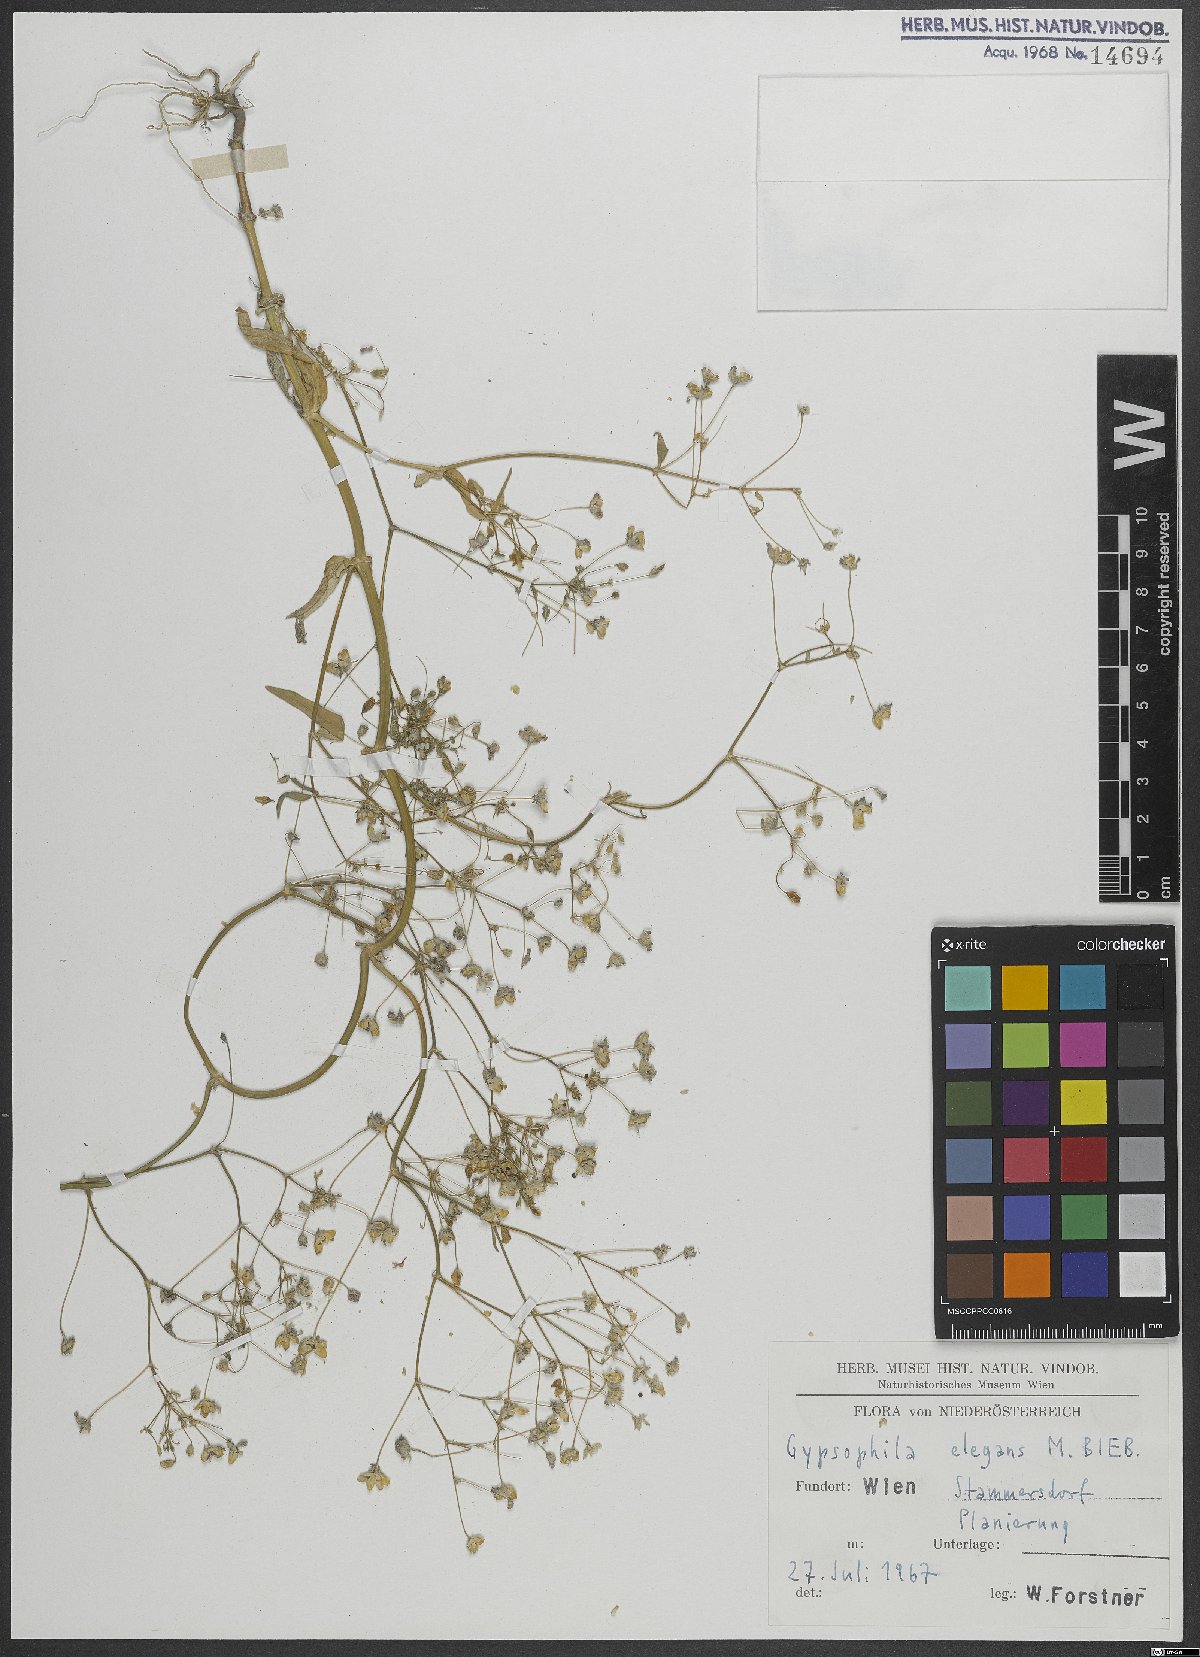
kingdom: Plantae
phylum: Tracheophyta
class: Magnoliopsida
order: Caryophyllales
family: Caryophyllaceae
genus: Gypsophila
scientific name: Gypsophila elegans
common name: Showy baby's-breath
